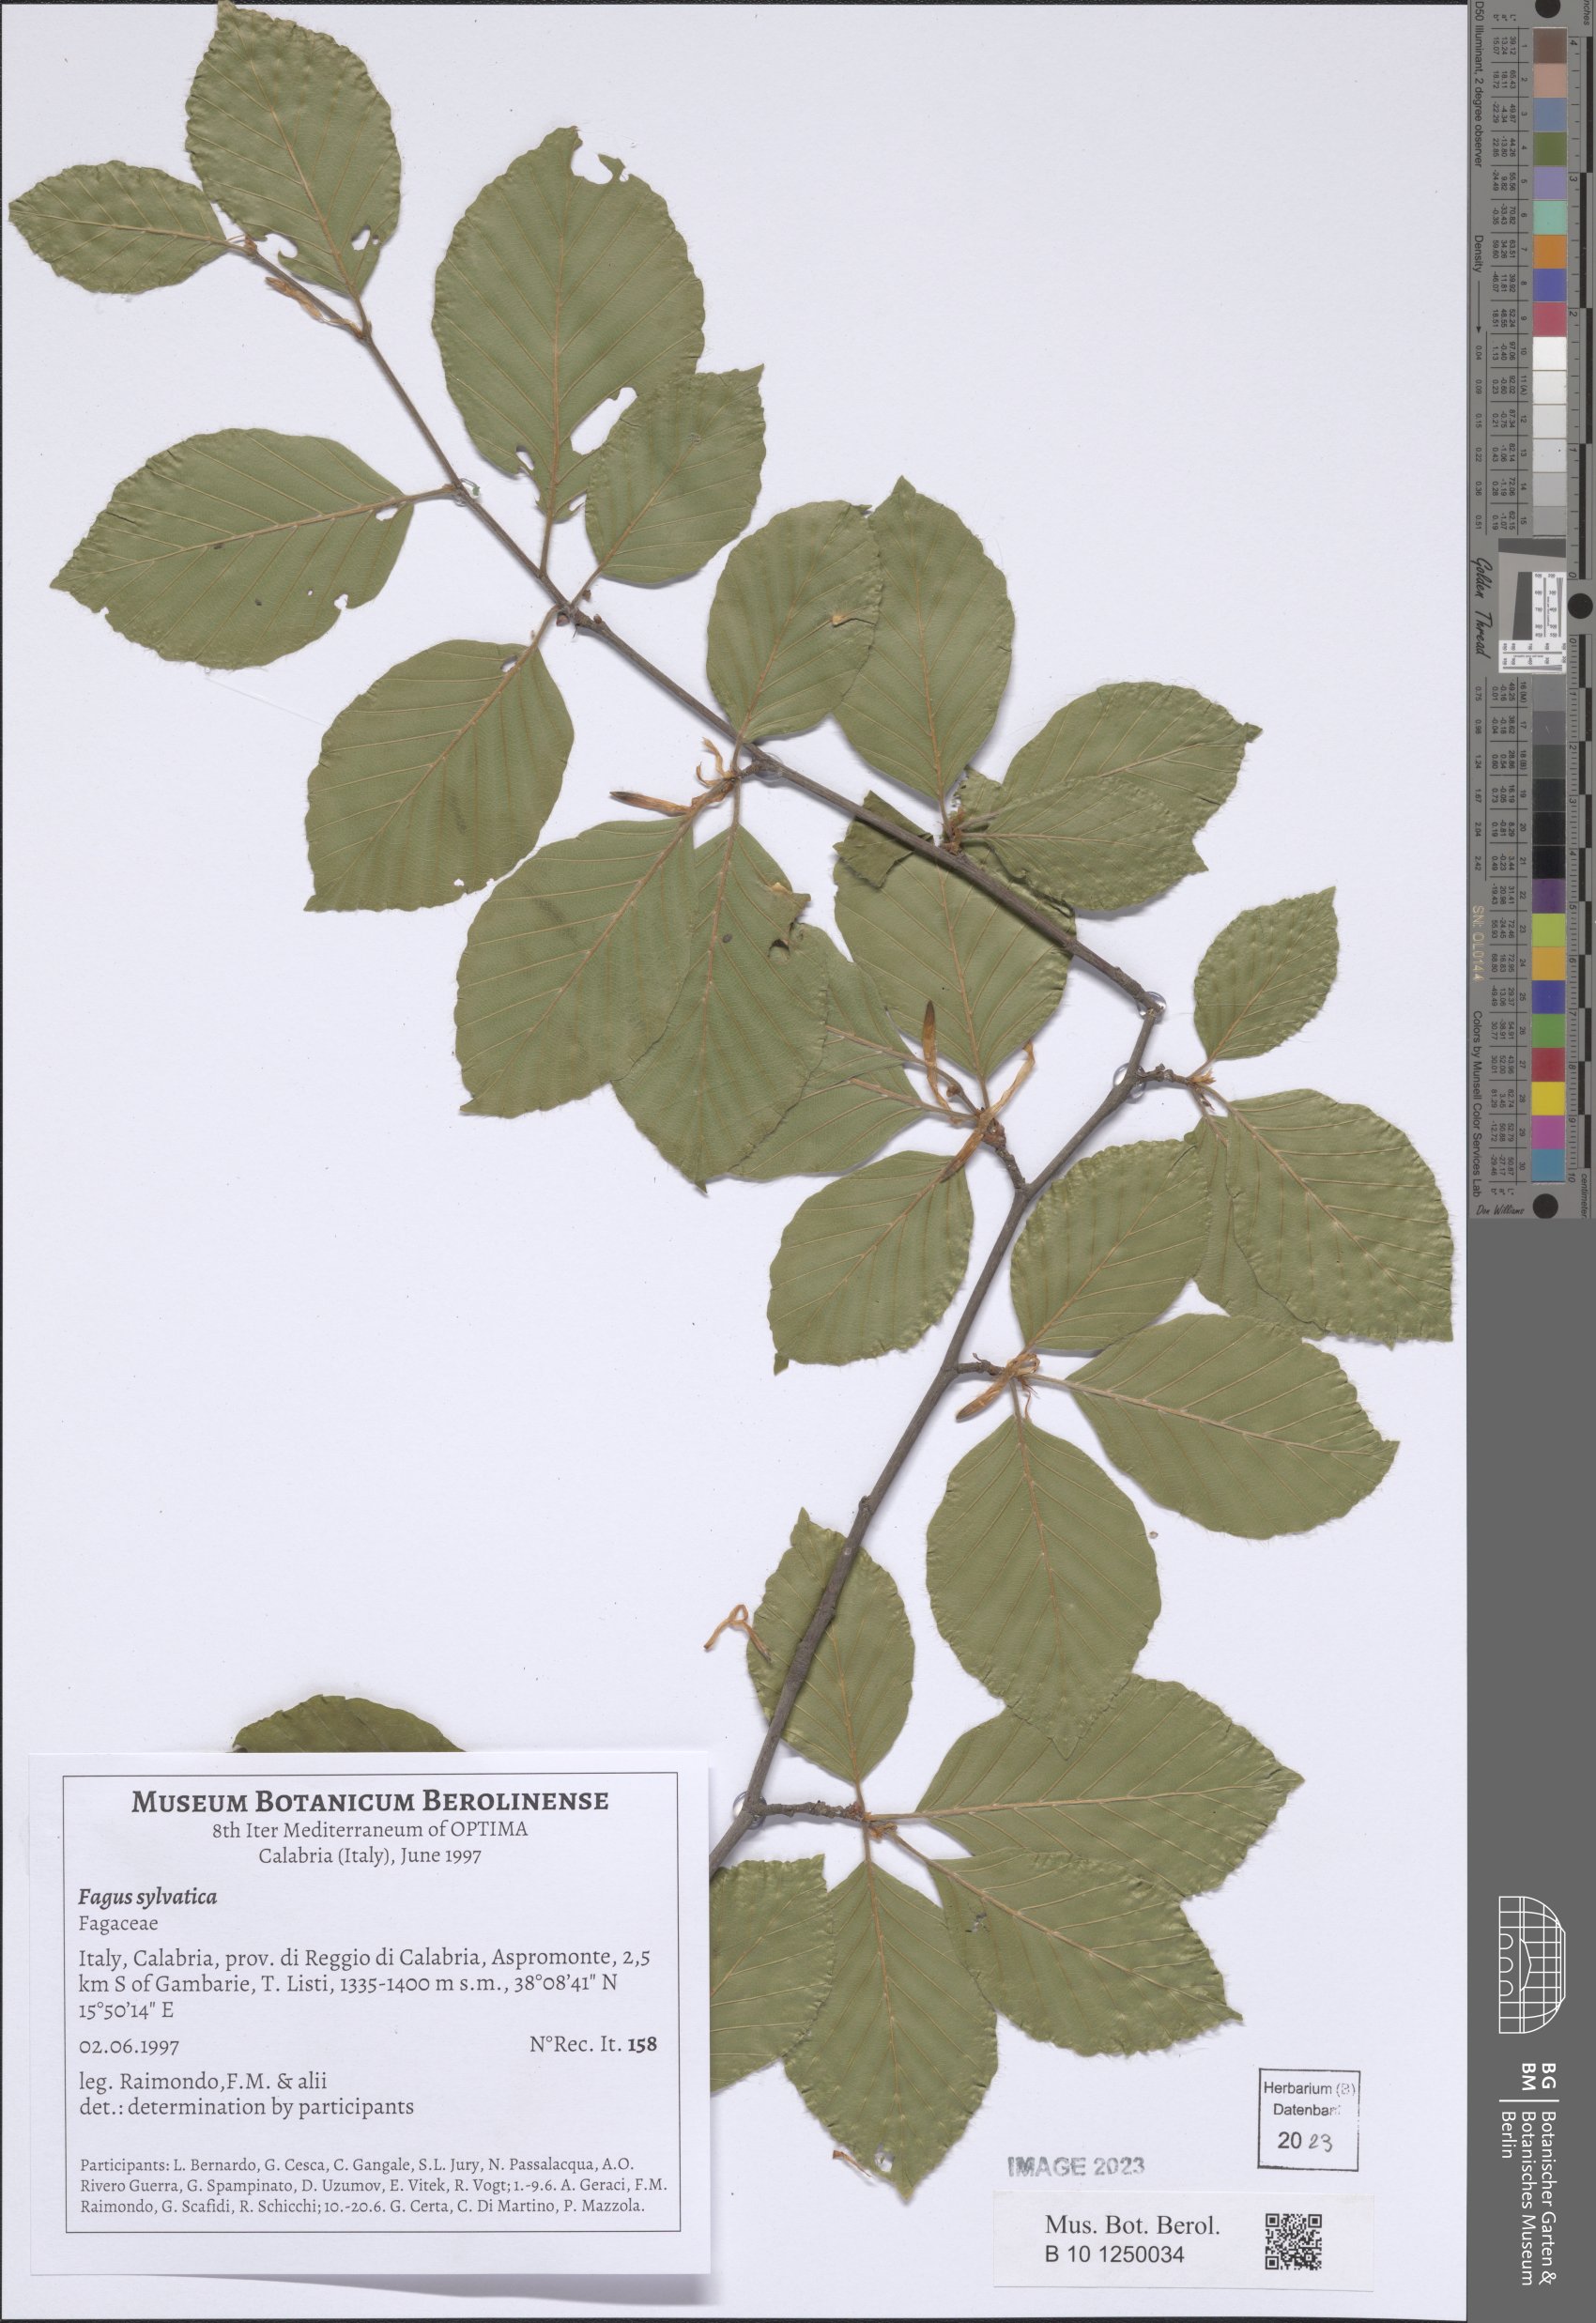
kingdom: Plantae
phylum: Tracheophyta
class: Magnoliopsida
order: Fagales
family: Fagaceae
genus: Fagus
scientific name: Fagus sylvatica
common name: Beech
